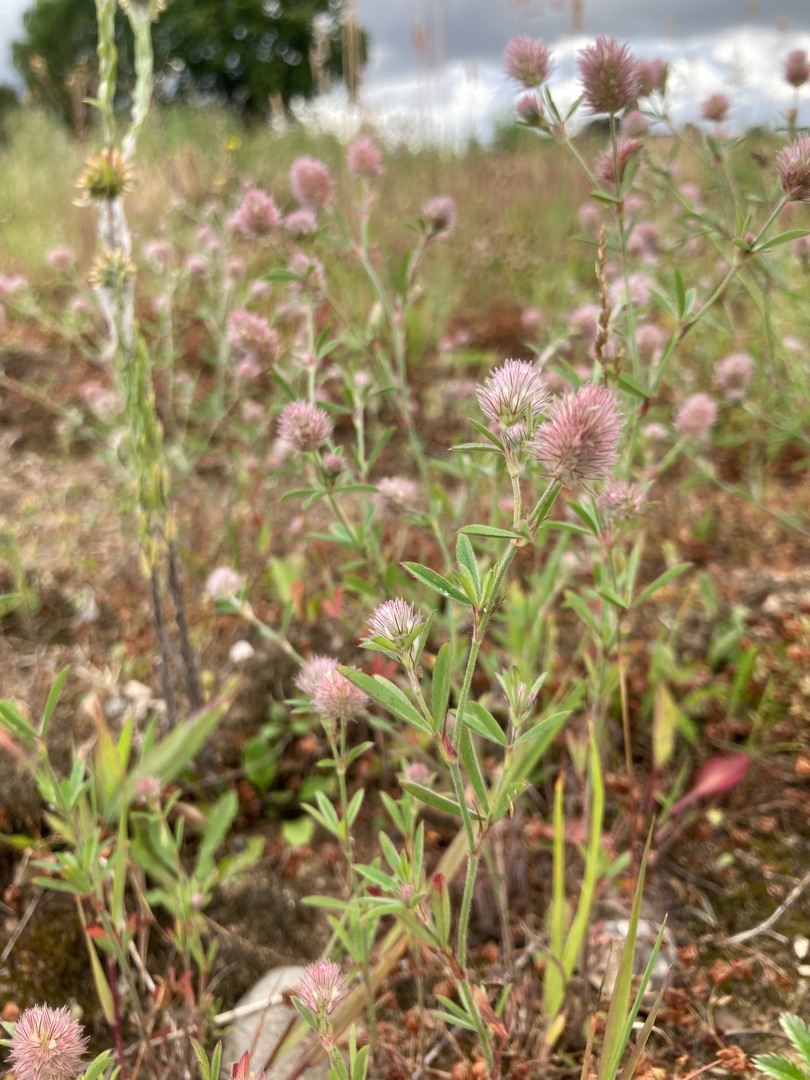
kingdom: Plantae
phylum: Tracheophyta
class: Magnoliopsida
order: Fabales
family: Fabaceae
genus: Trifolium
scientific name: Trifolium arvense
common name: Hare-kløver
